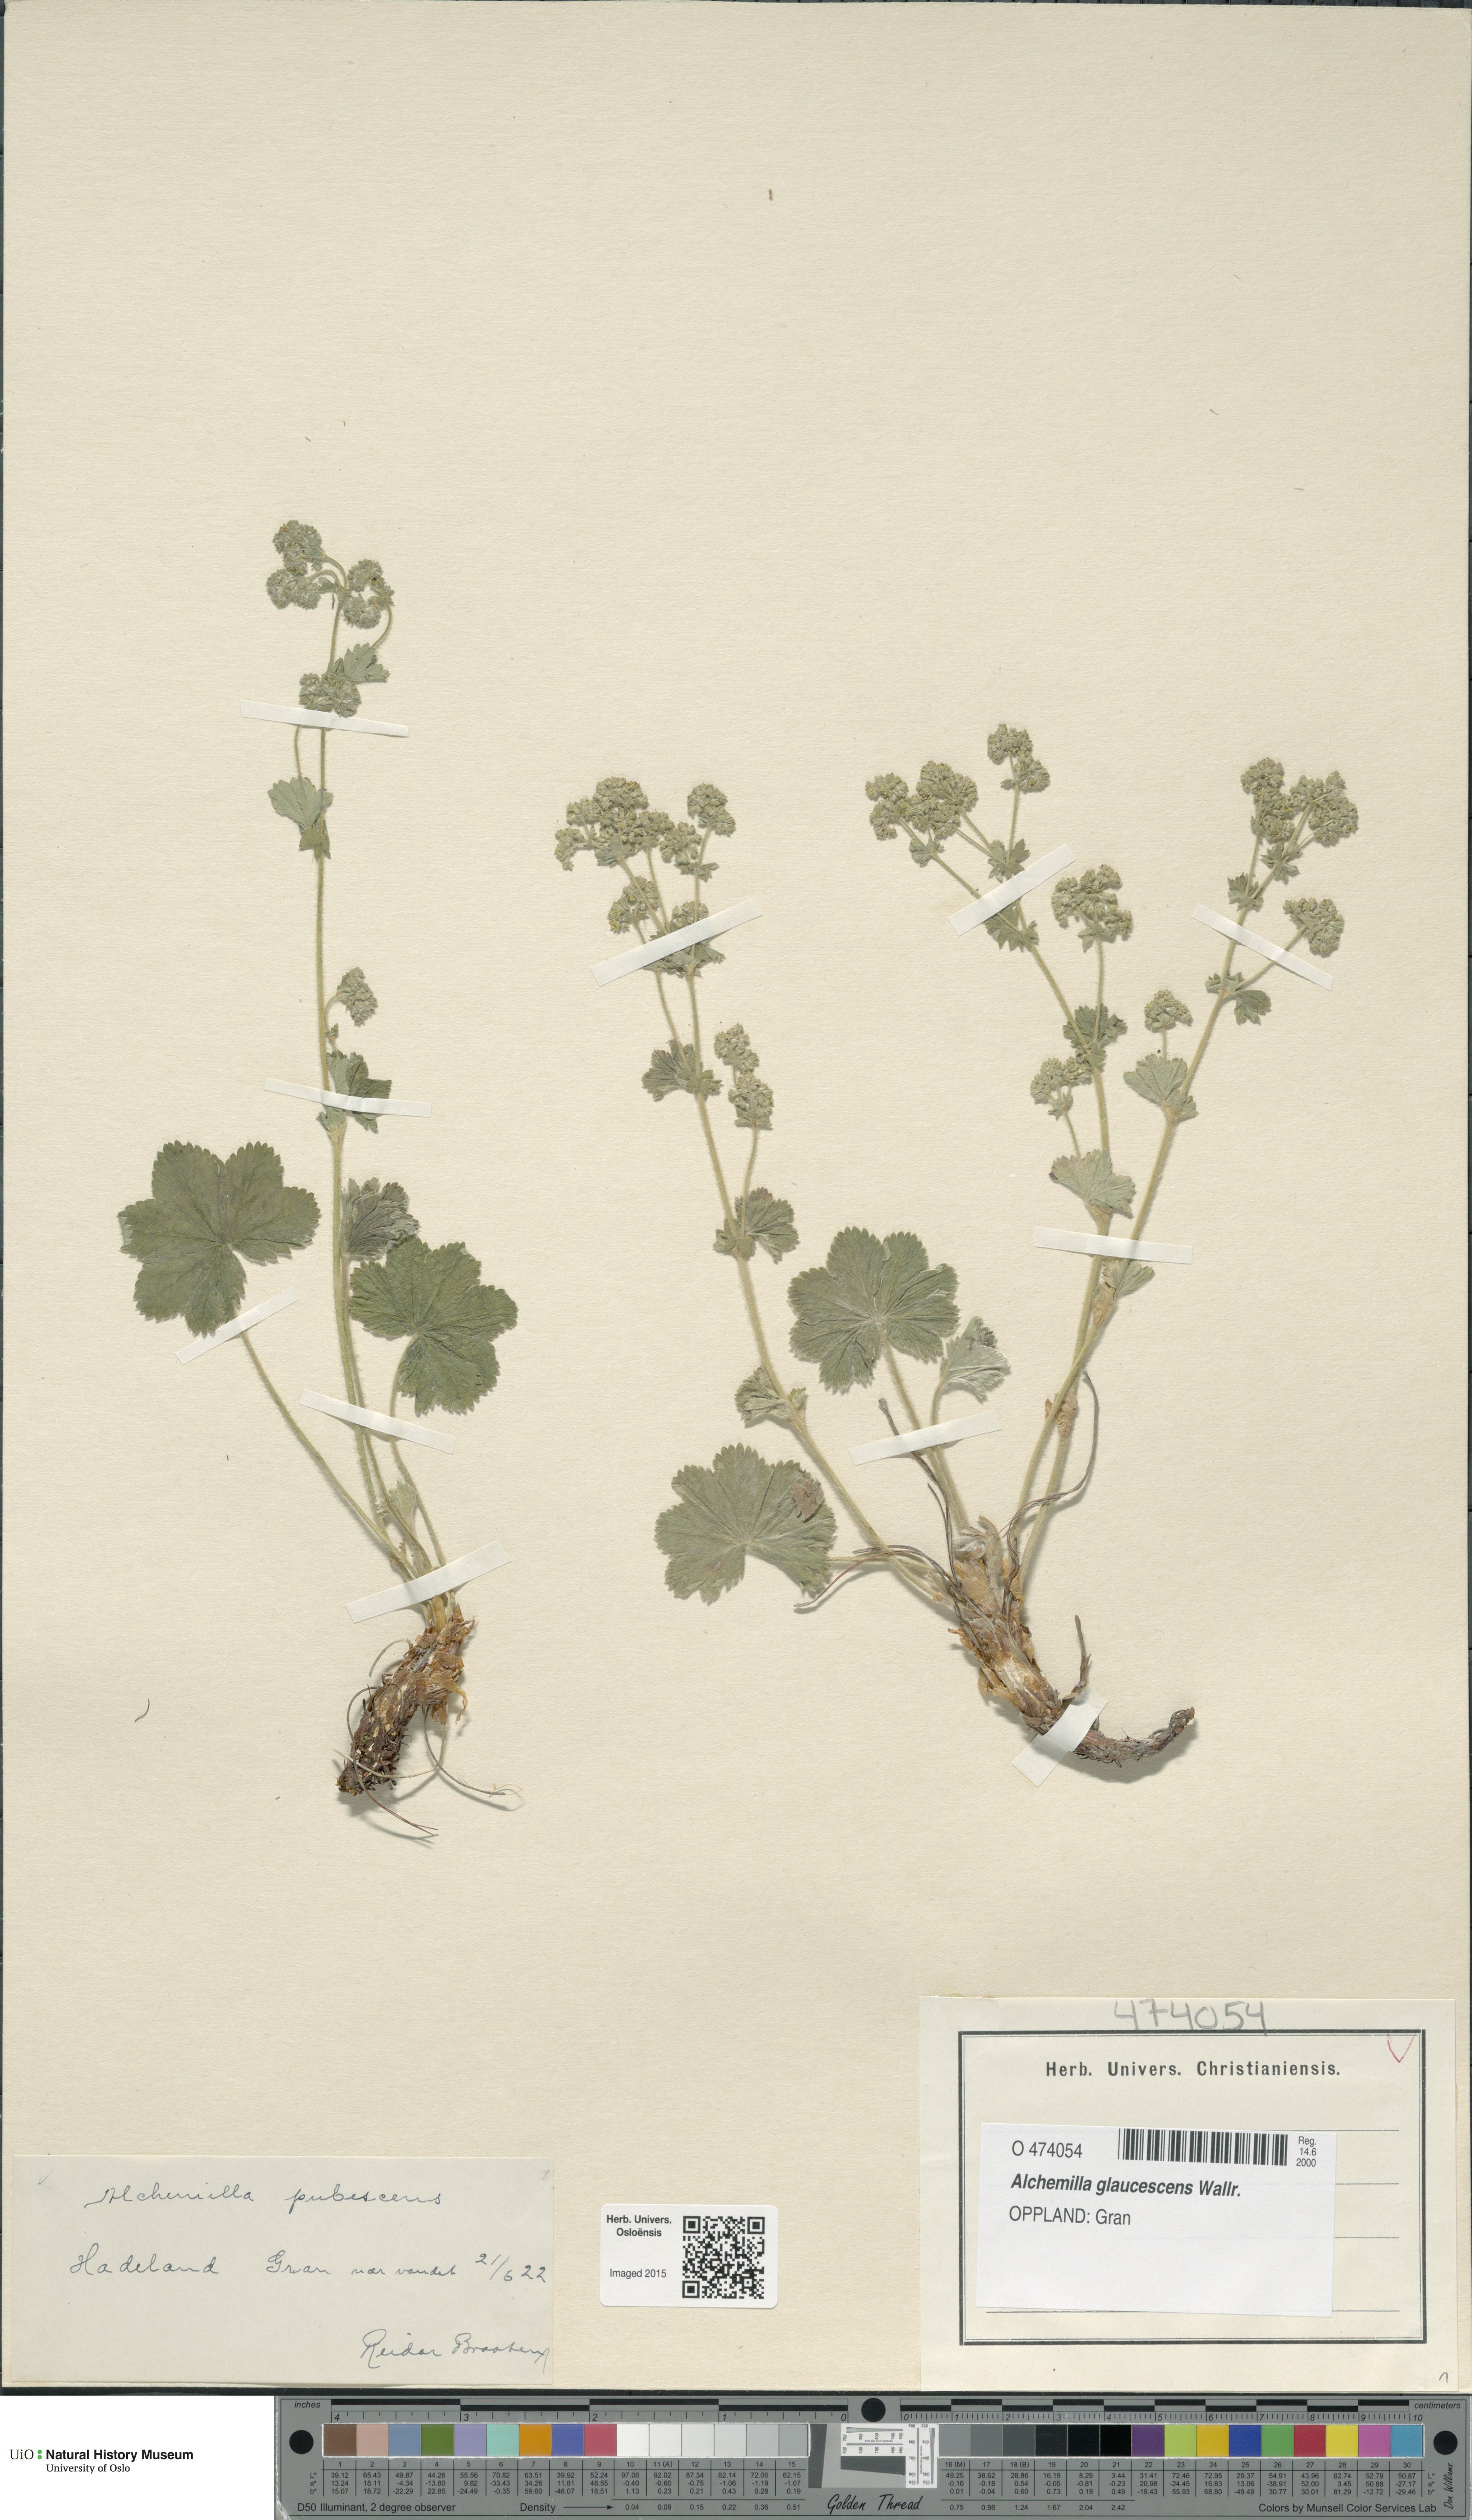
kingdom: Plantae
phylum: Tracheophyta
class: Magnoliopsida
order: Rosales
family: Rosaceae
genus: Alchemilla
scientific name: Alchemilla glaucescens
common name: Silky lady's mantle
